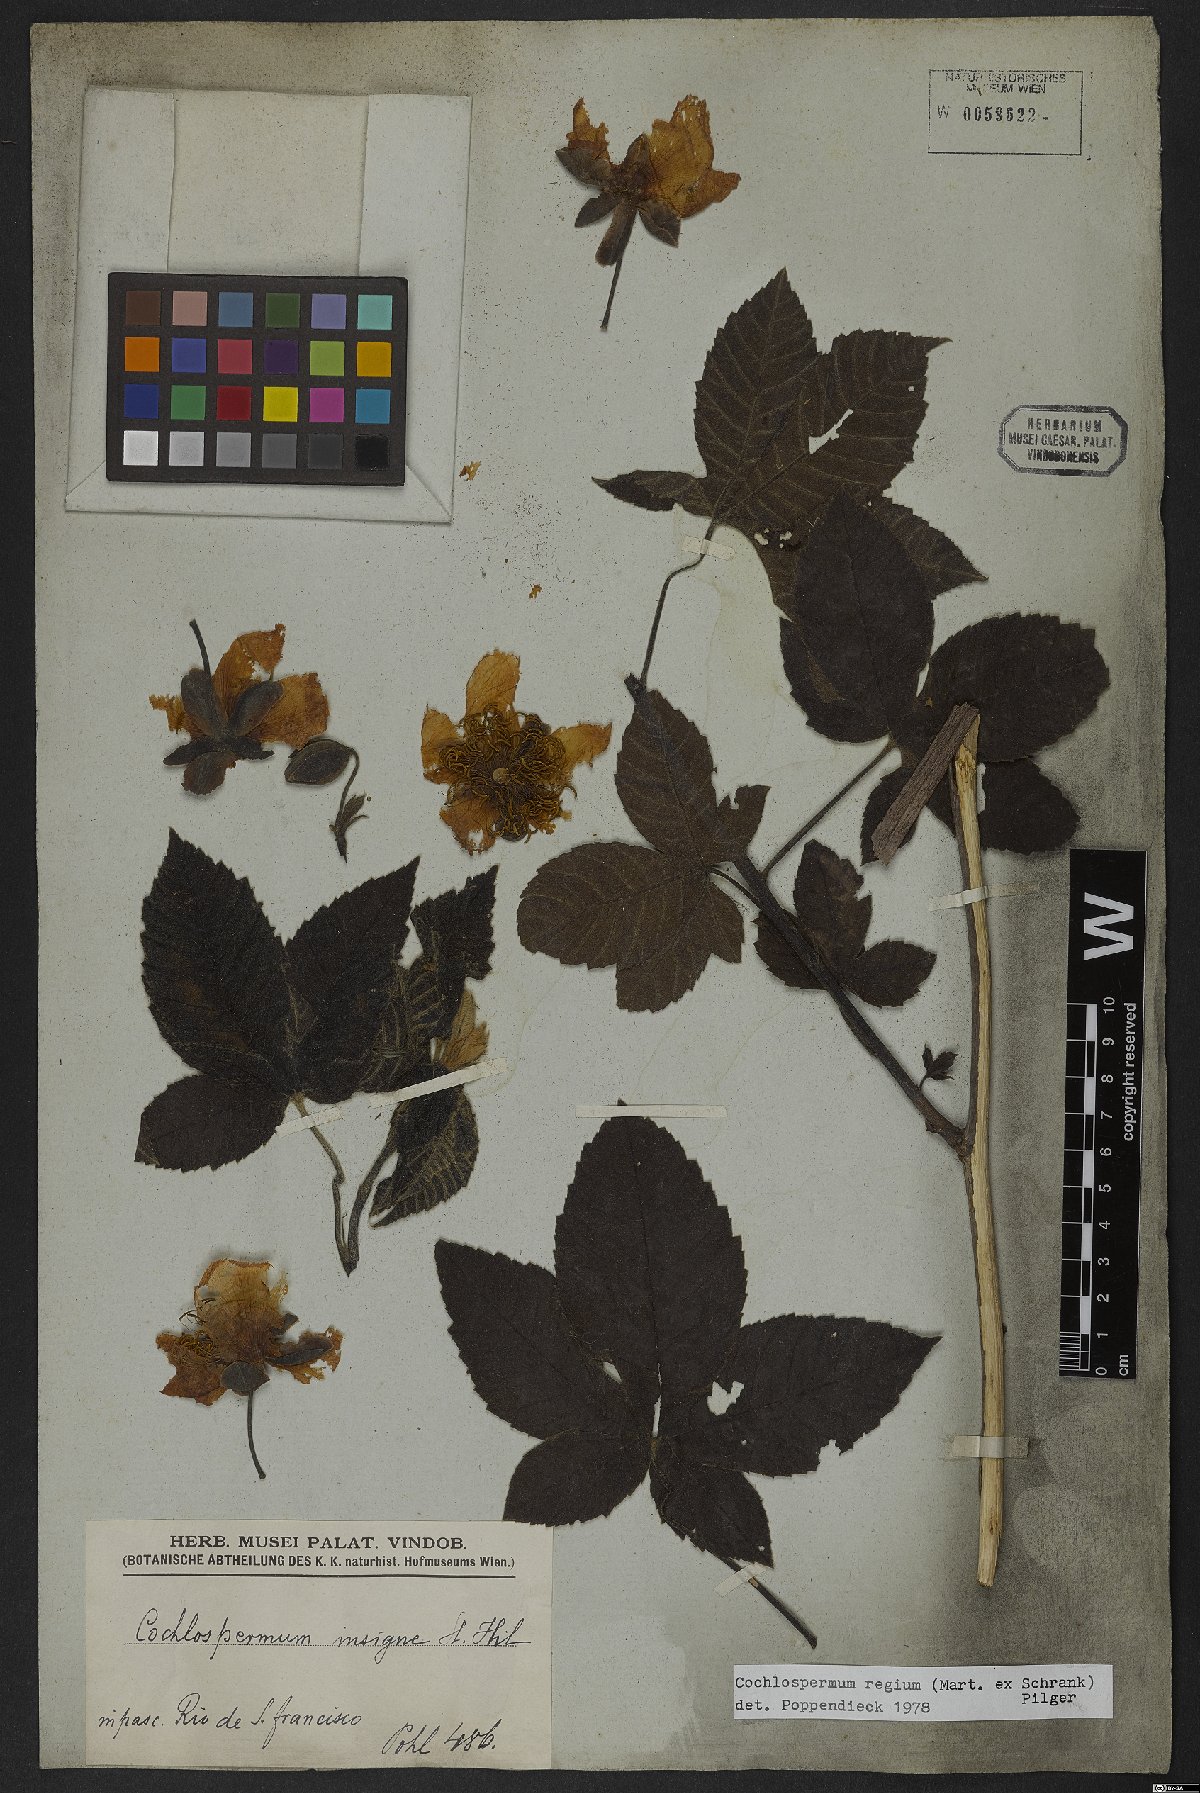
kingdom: Plantae
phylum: Tracheophyta
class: Magnoliopsida
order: Malvales
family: Cochlospermaceae
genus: Cochlospermum
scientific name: Cochlospermum regium
